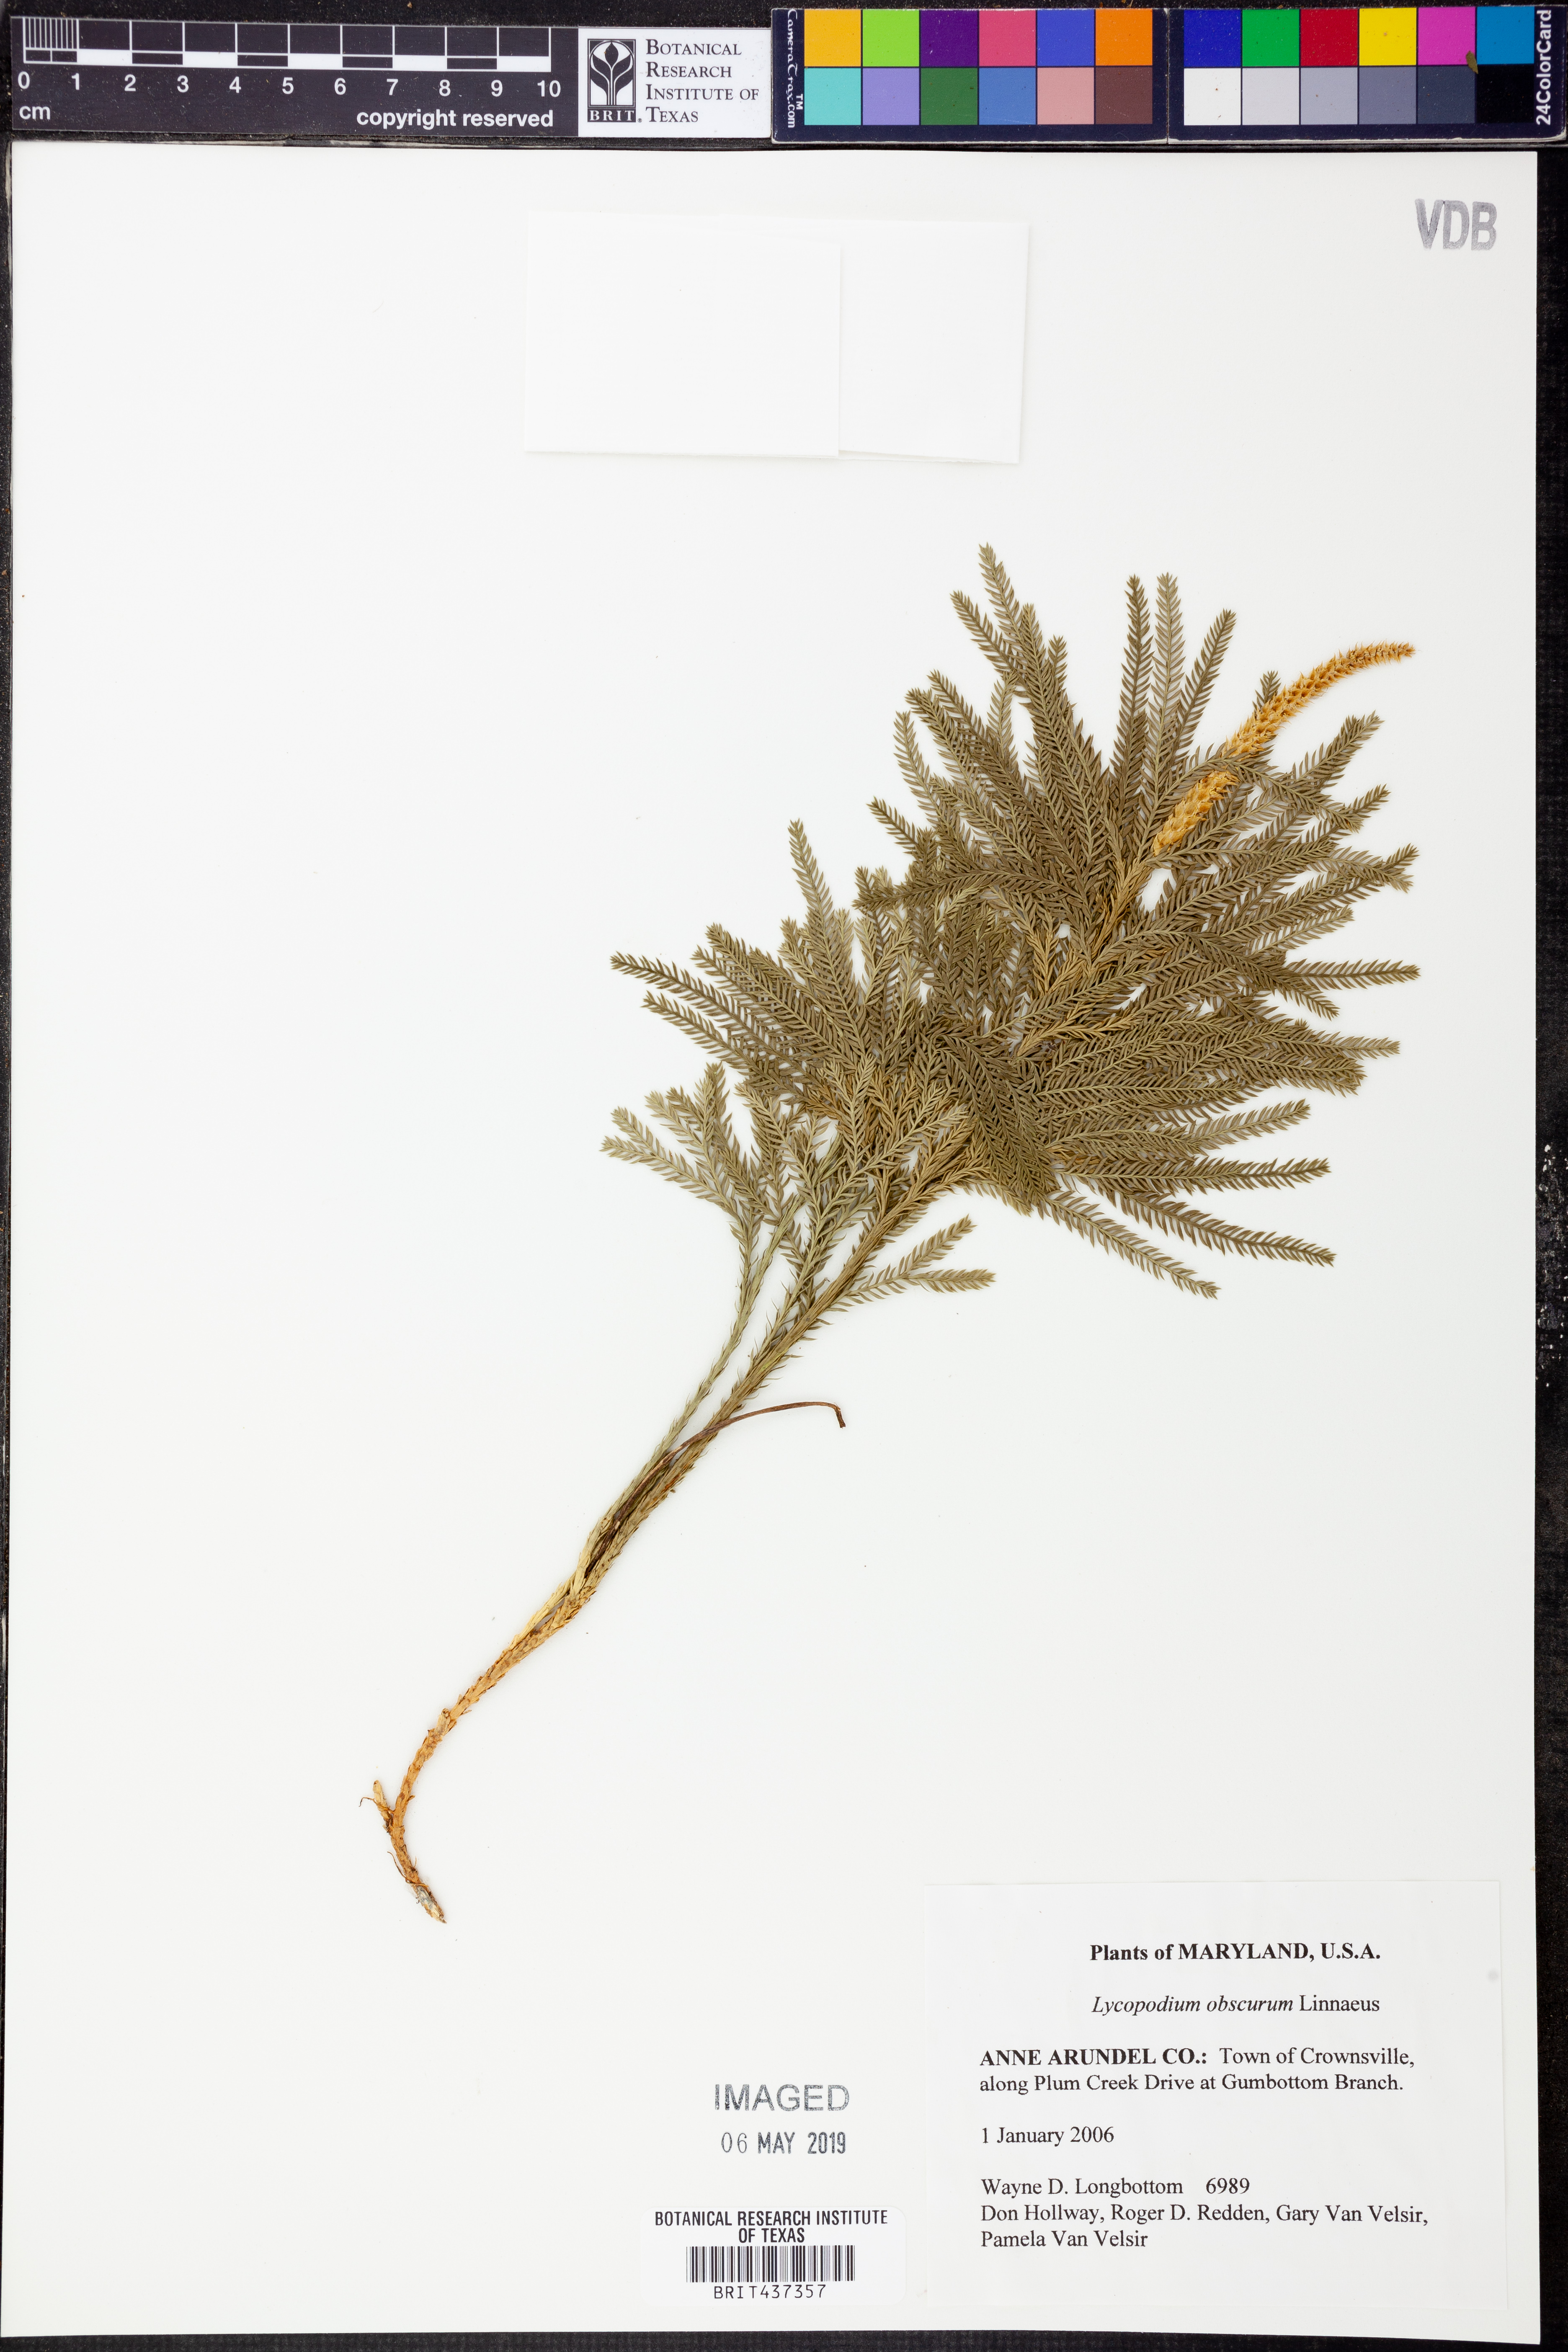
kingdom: Plantae
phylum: Tracheophyta
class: Lycopodiopsida
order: Lycopodiales
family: Lycopodiaceae
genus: Dendrolycopodium
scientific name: Dendrolycopodium obscurum
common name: Common ground-pine
